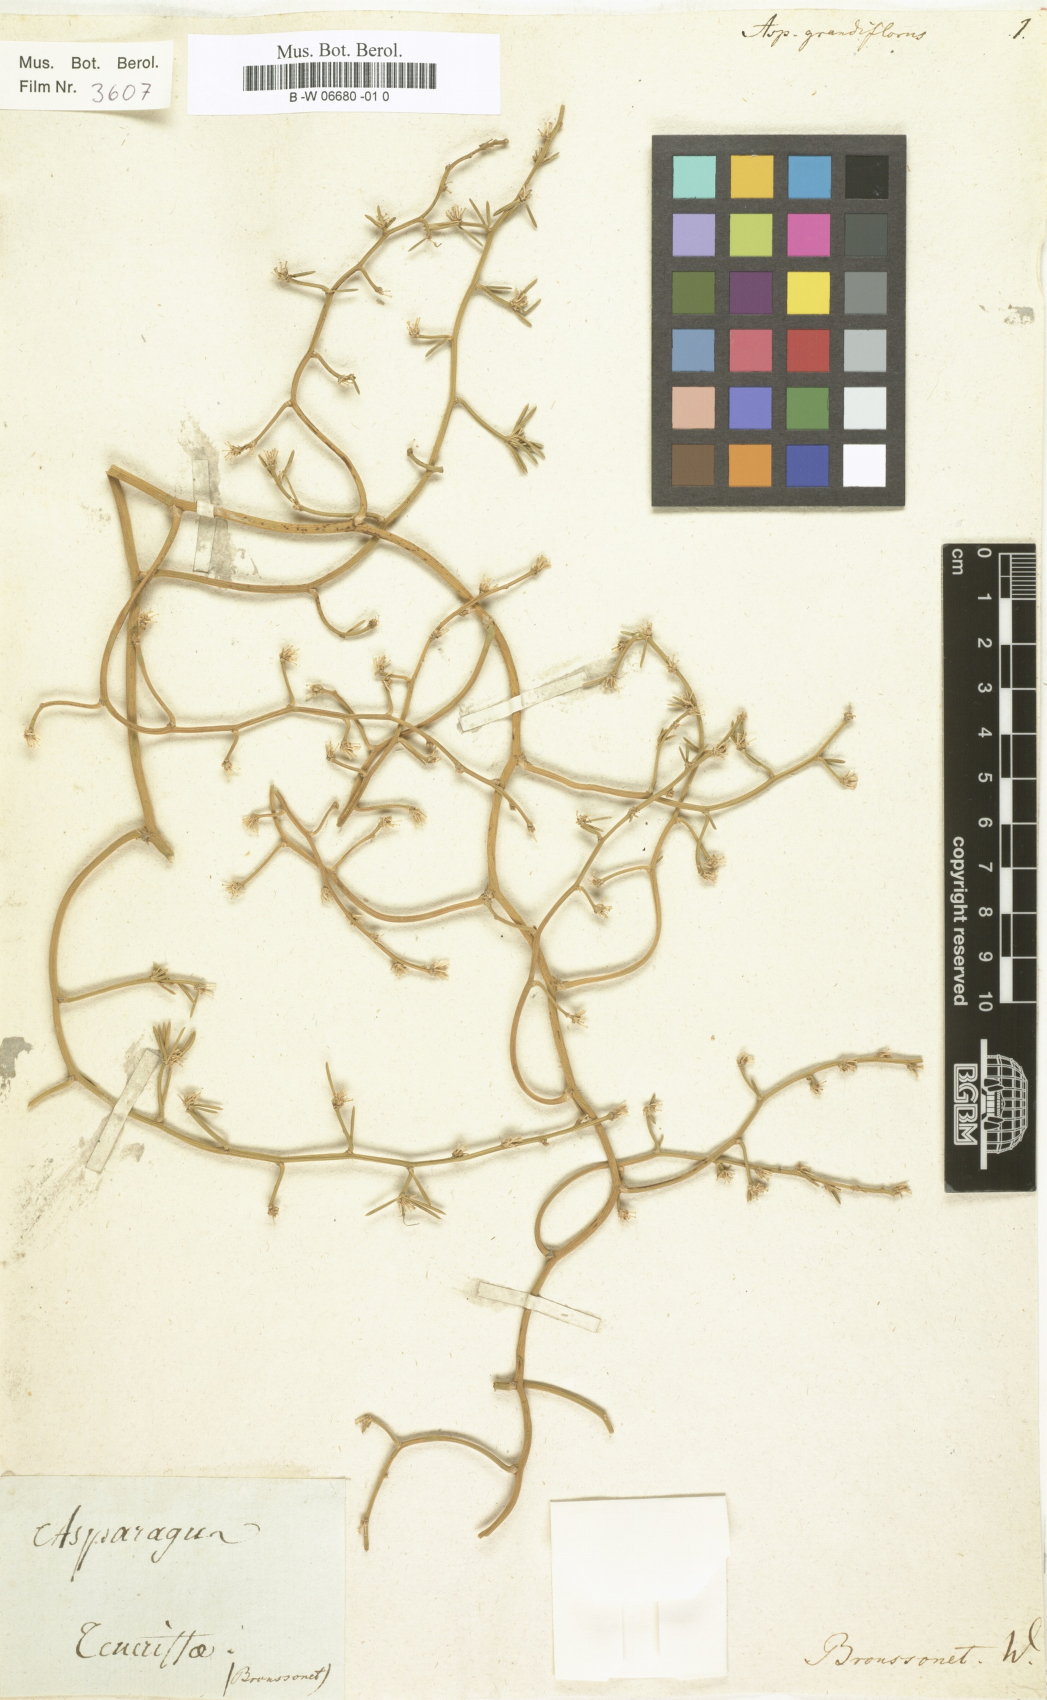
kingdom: Plantae
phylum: Tracheophyta
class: Liliopsida
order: Asparagales
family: Asparagaceae
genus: Asparagus
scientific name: Asparagus umbellatus
